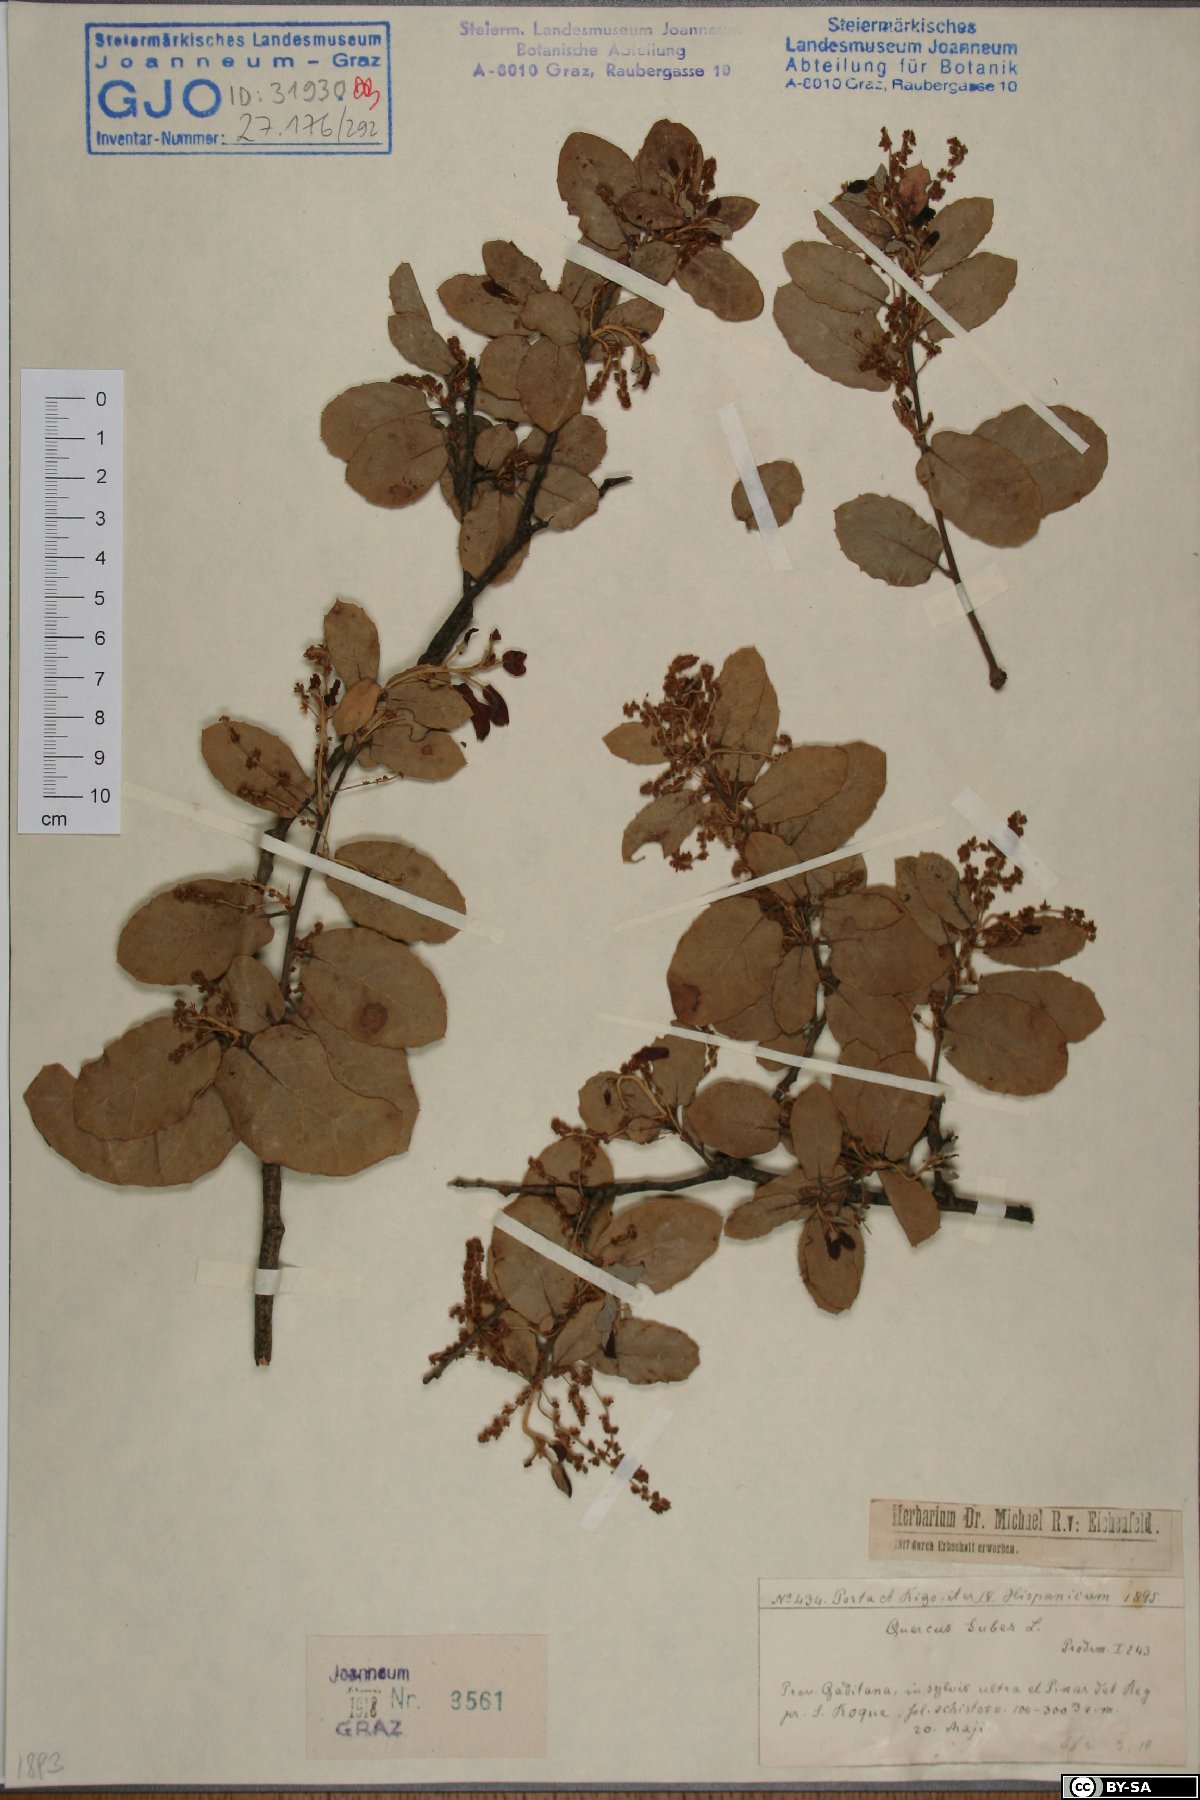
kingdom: Plantae
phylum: Tracheophyta
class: Magnoliopsida
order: Fagales
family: Fagaceae
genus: Quercus
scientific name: Quercus suber
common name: Cork oak
